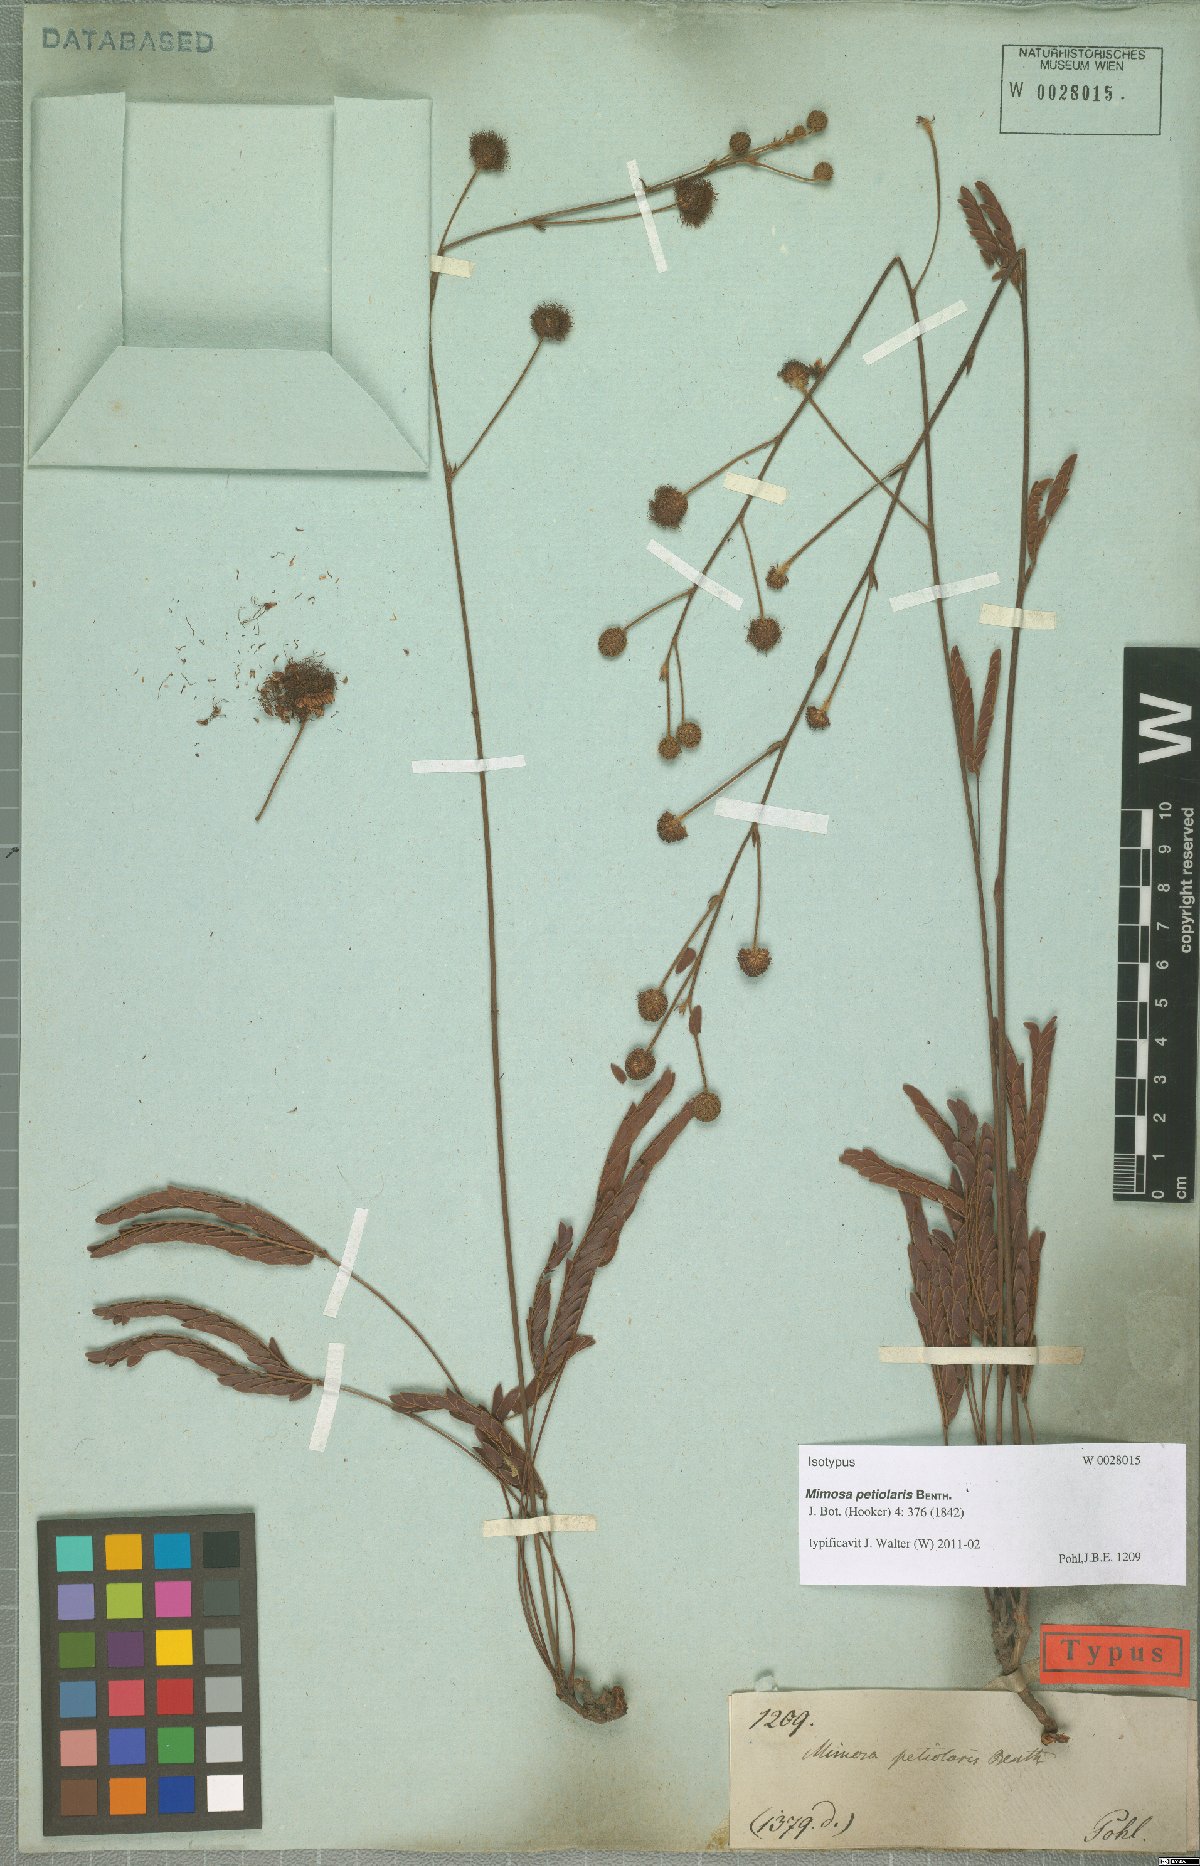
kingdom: Plantae
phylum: Tracheophyta
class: Magnoliopsida
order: Fabales
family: Fabaceae
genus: Mimosa
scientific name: Mimosa petiolaris
